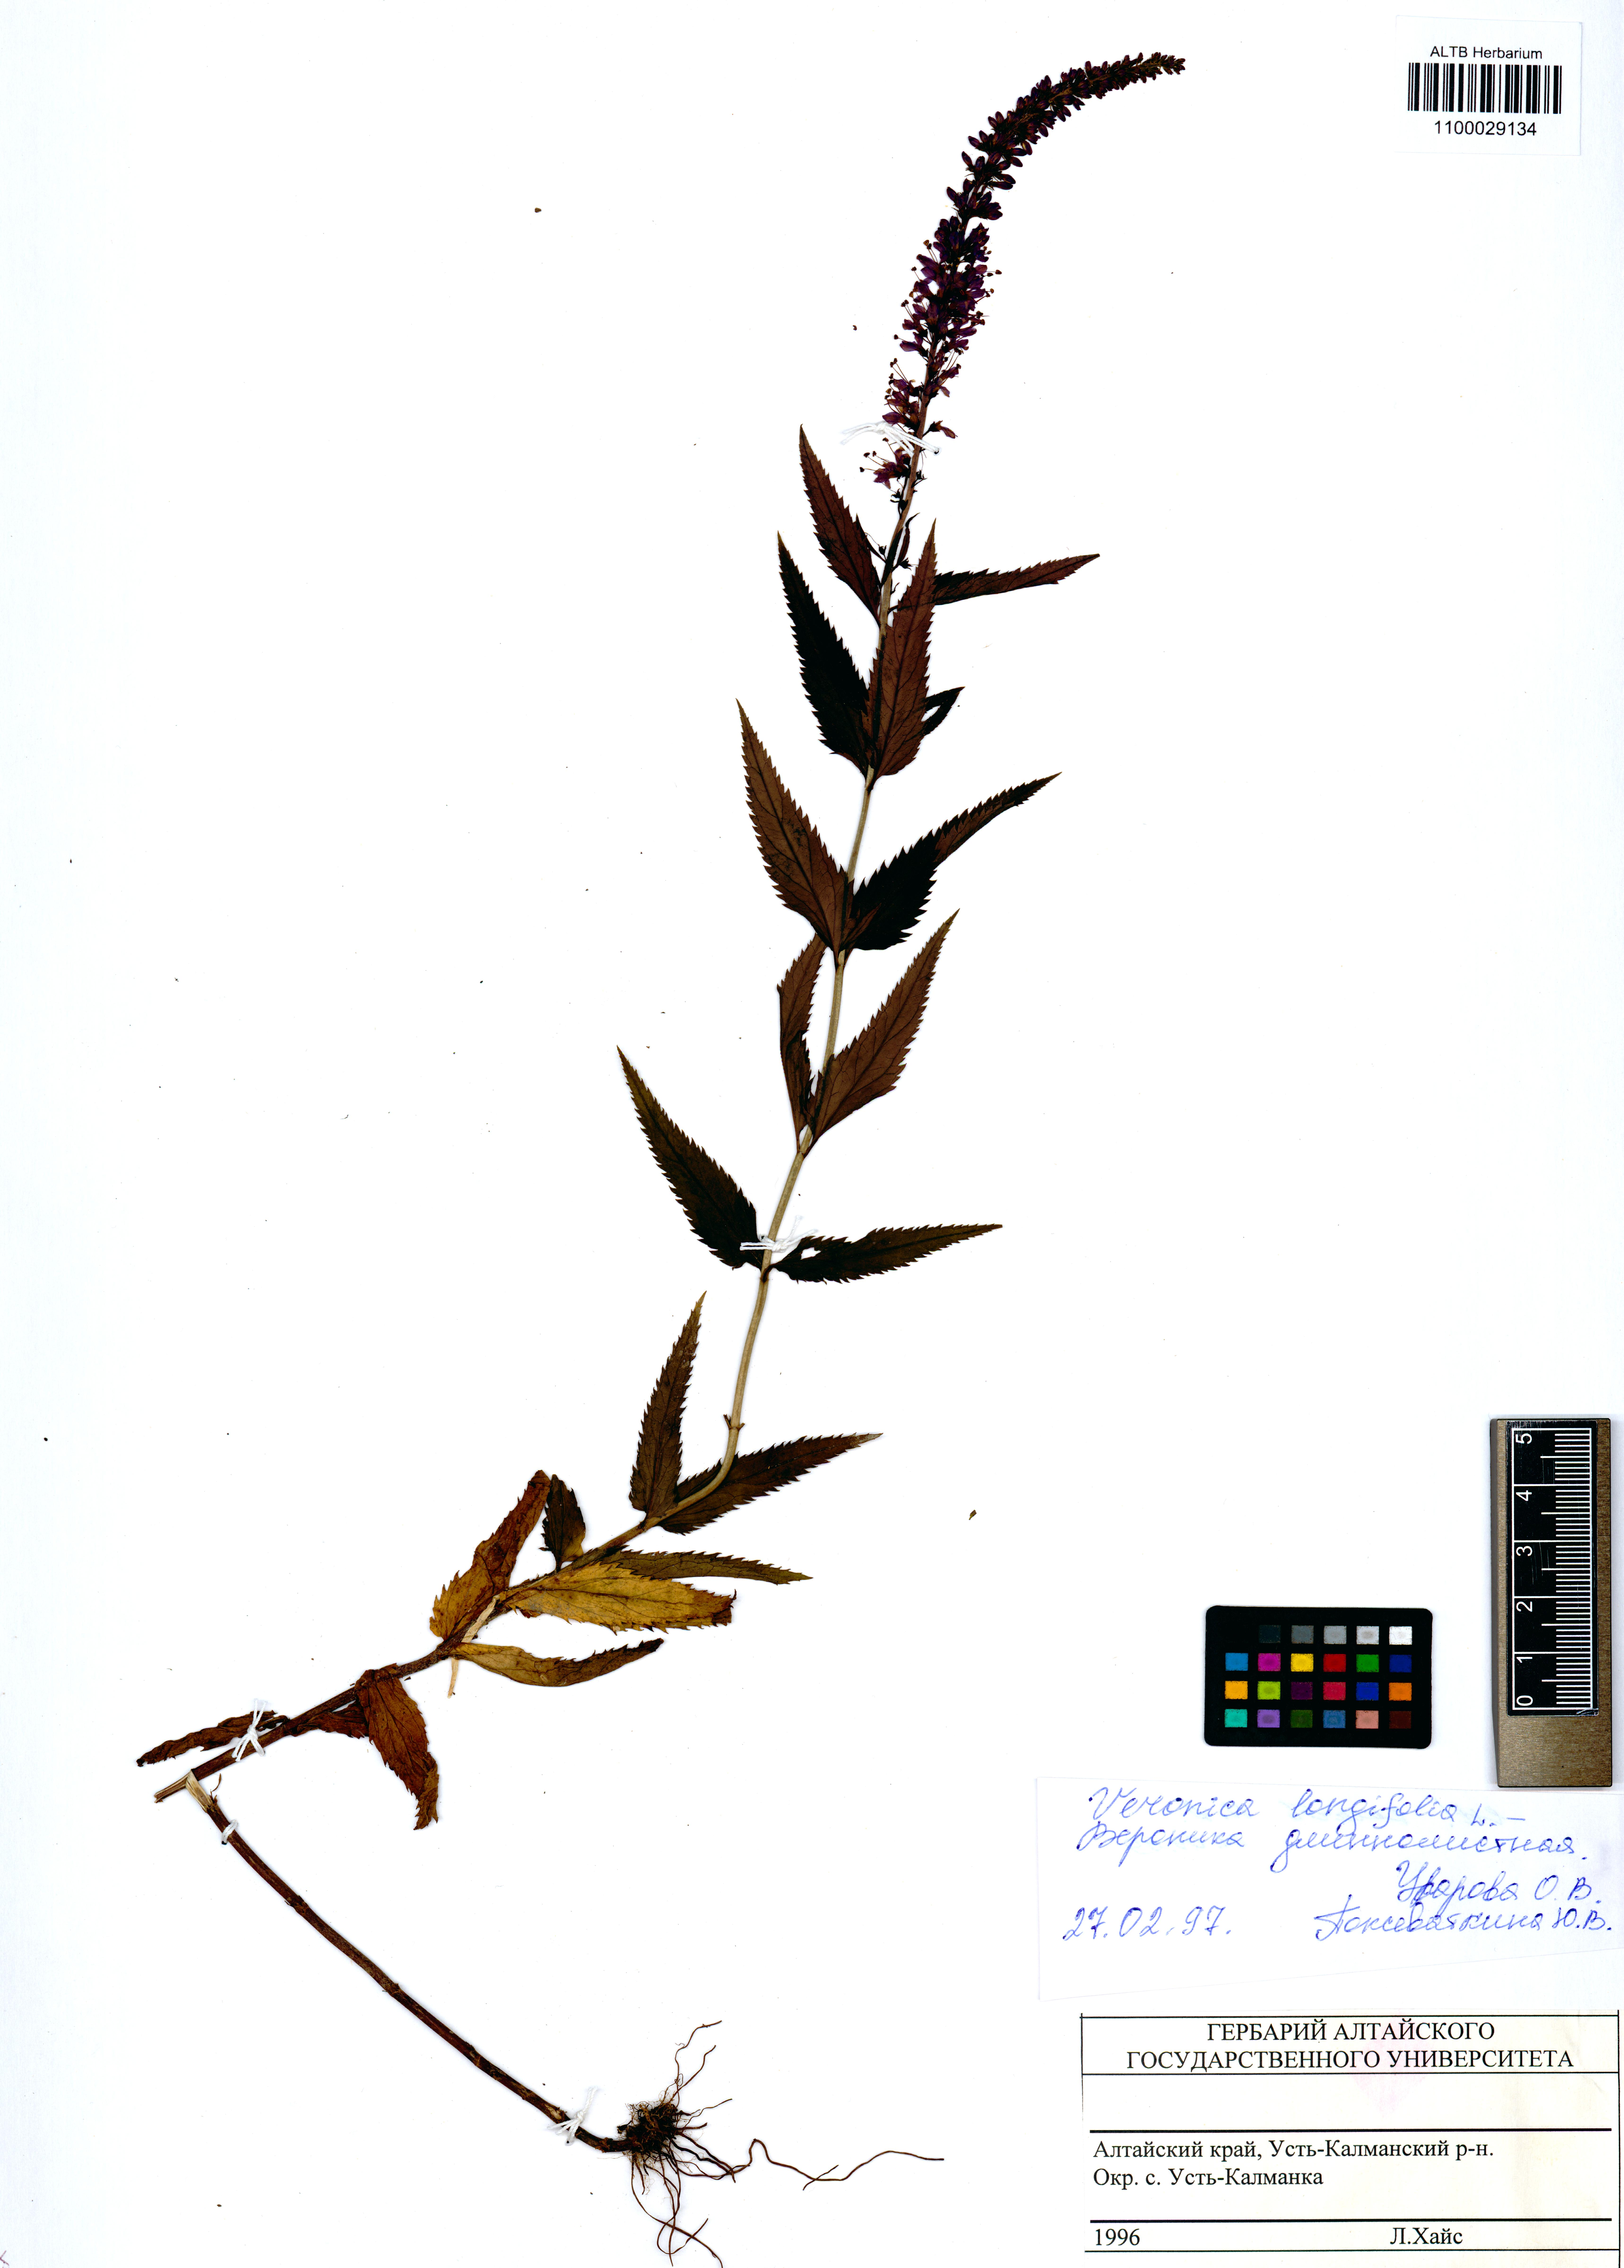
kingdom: Plantae
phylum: Tracheophyta
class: Magnoliopsida
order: Lamiales
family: Plantaginaceae
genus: Veronica
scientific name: Veronica longifolia
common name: Garden speedwell
